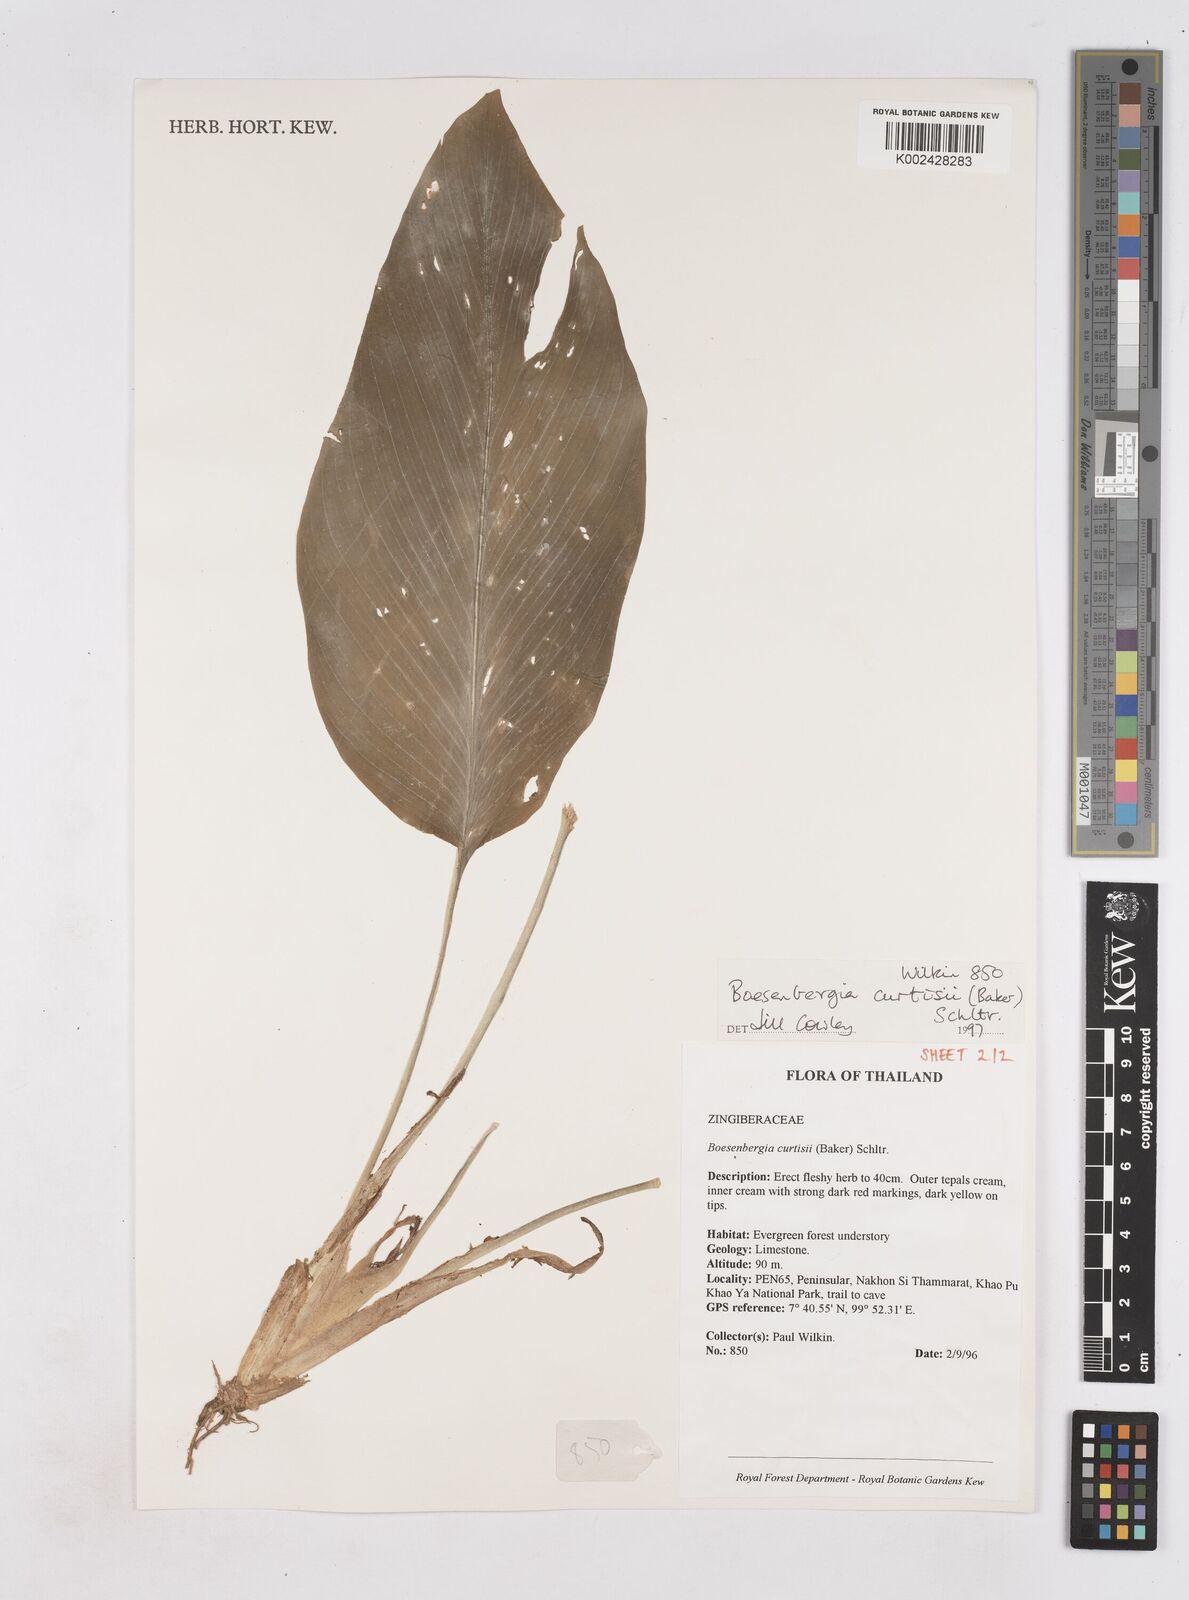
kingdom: Plantae
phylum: Tracheophyta
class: Liliopsida
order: Zingiberales
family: Zingiberaceae
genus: Boesenbergia
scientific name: Boesenbergia curtisii
